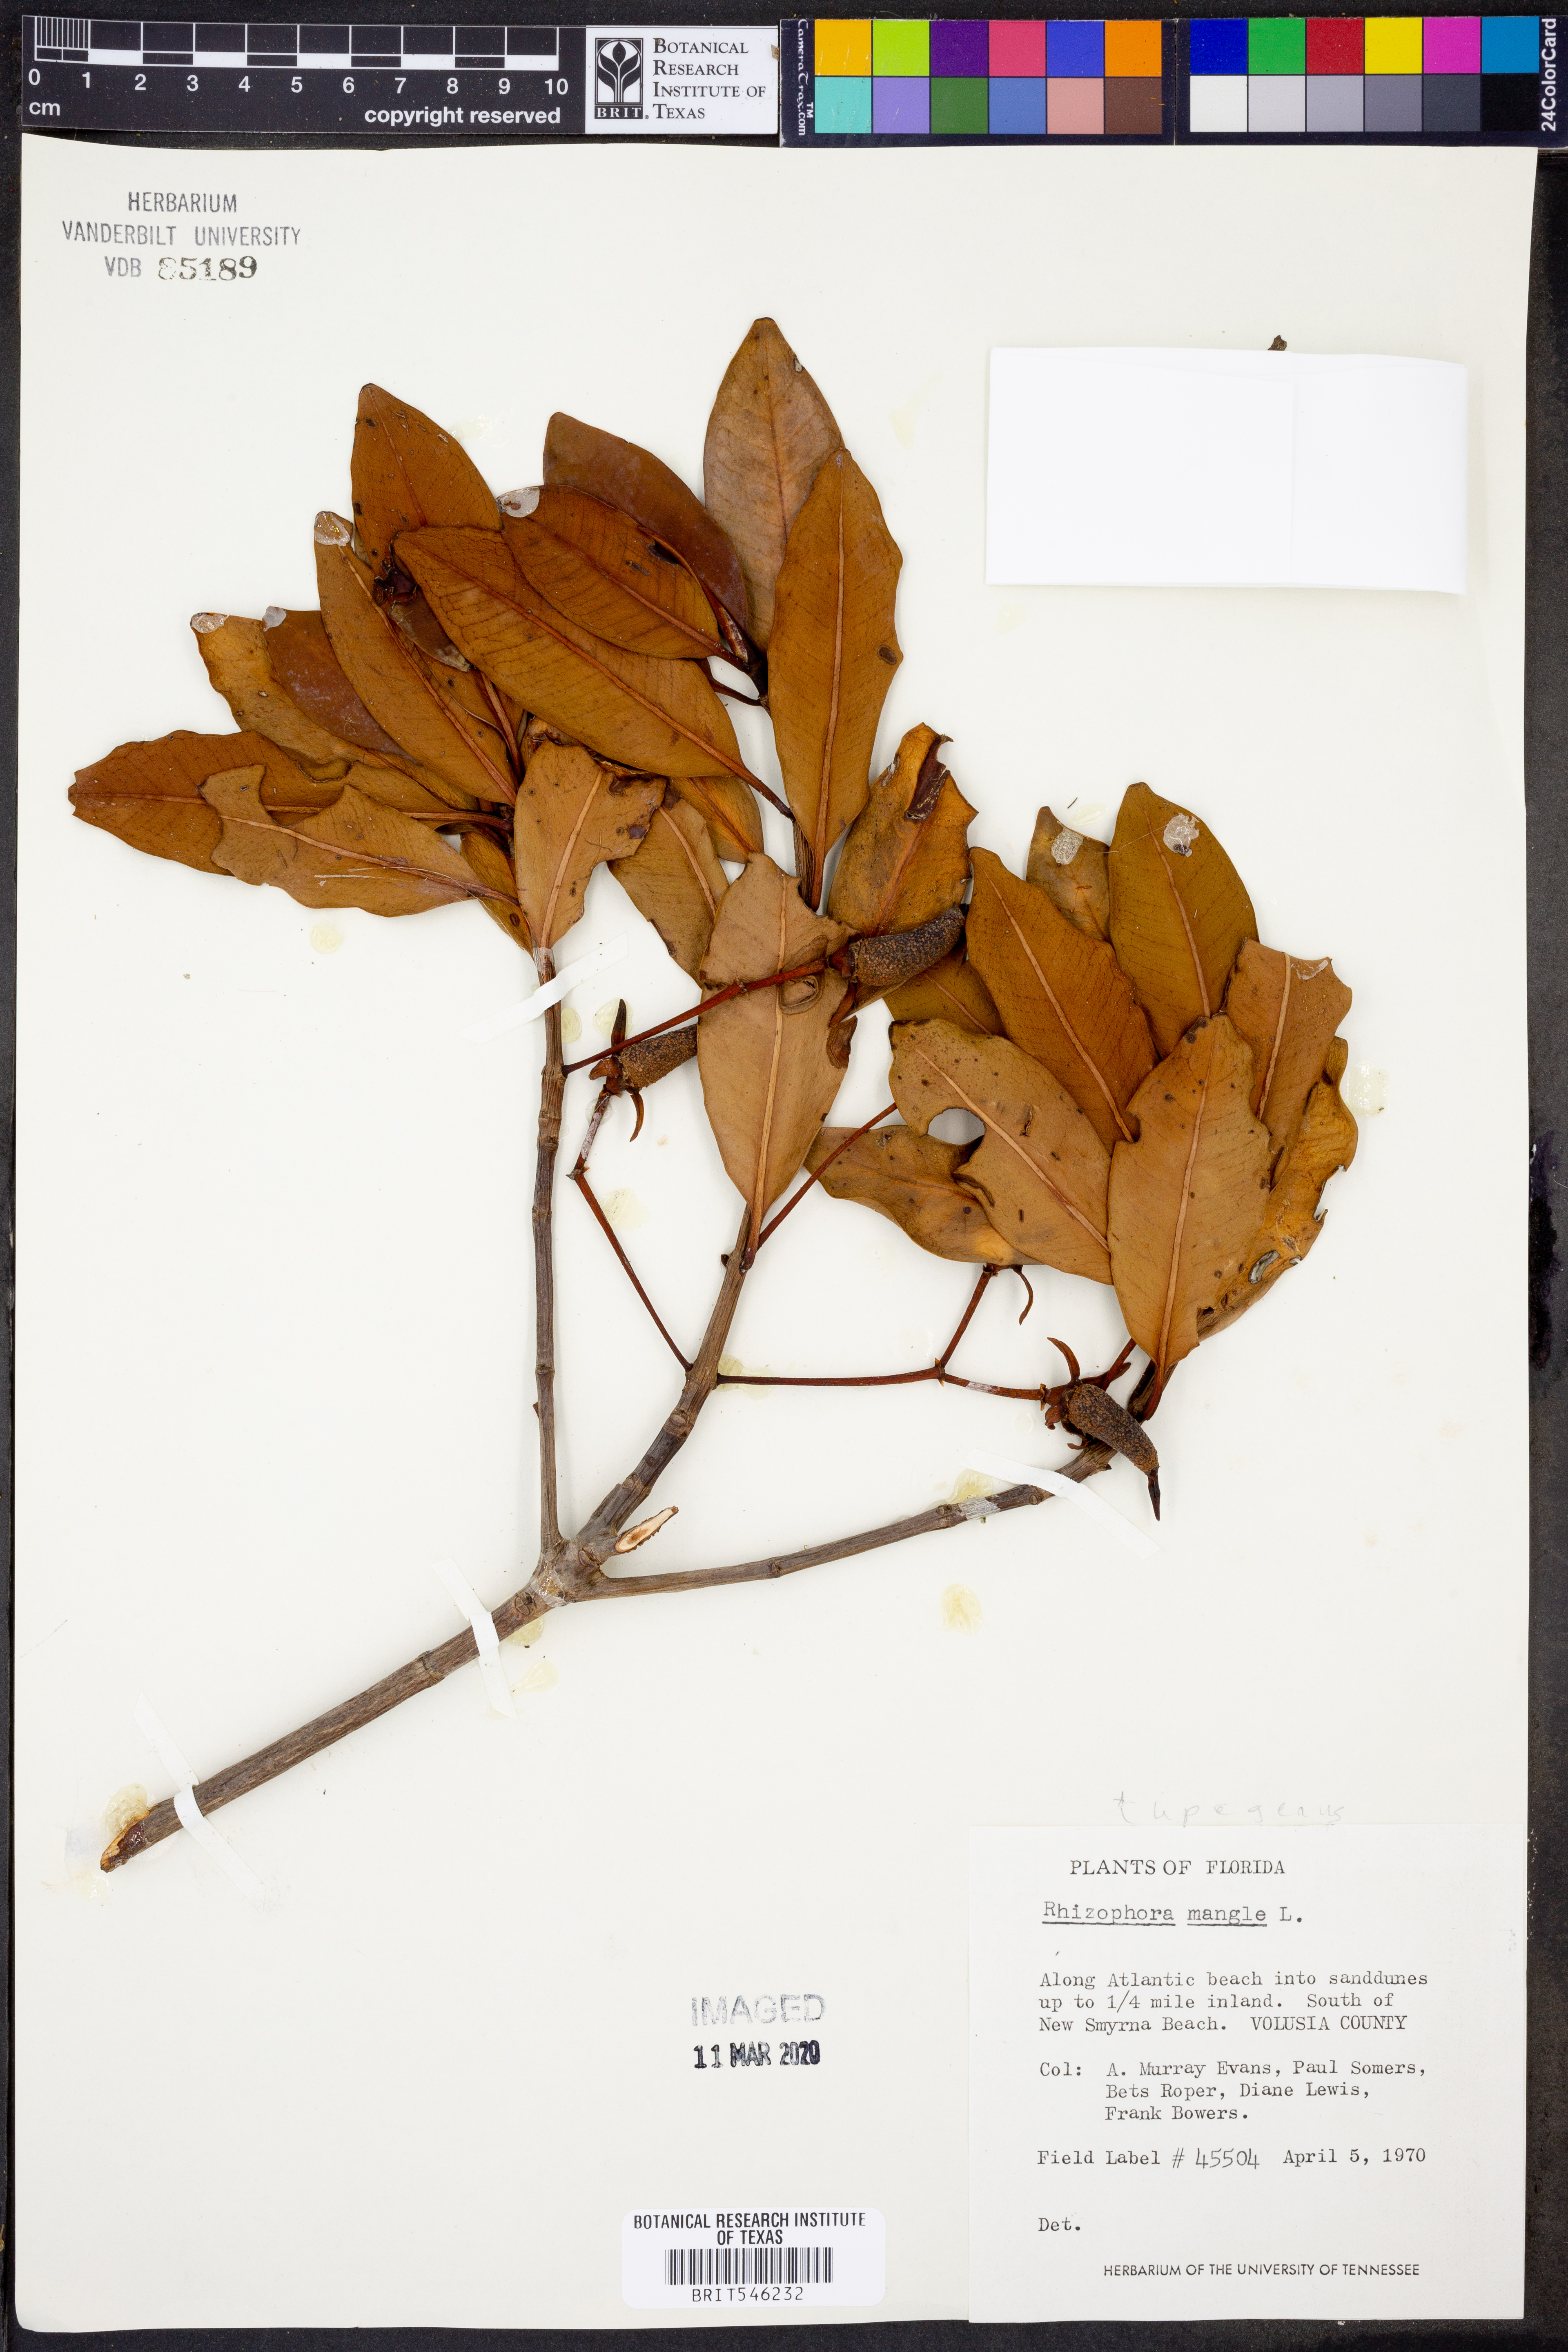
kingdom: Plantae
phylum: Tracheophyta
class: Magnoliopsida
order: Malpighiales
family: Rhizophoraceae
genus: Rhizophora
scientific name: Rhizophora mucronata
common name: Loop-root mangrove
